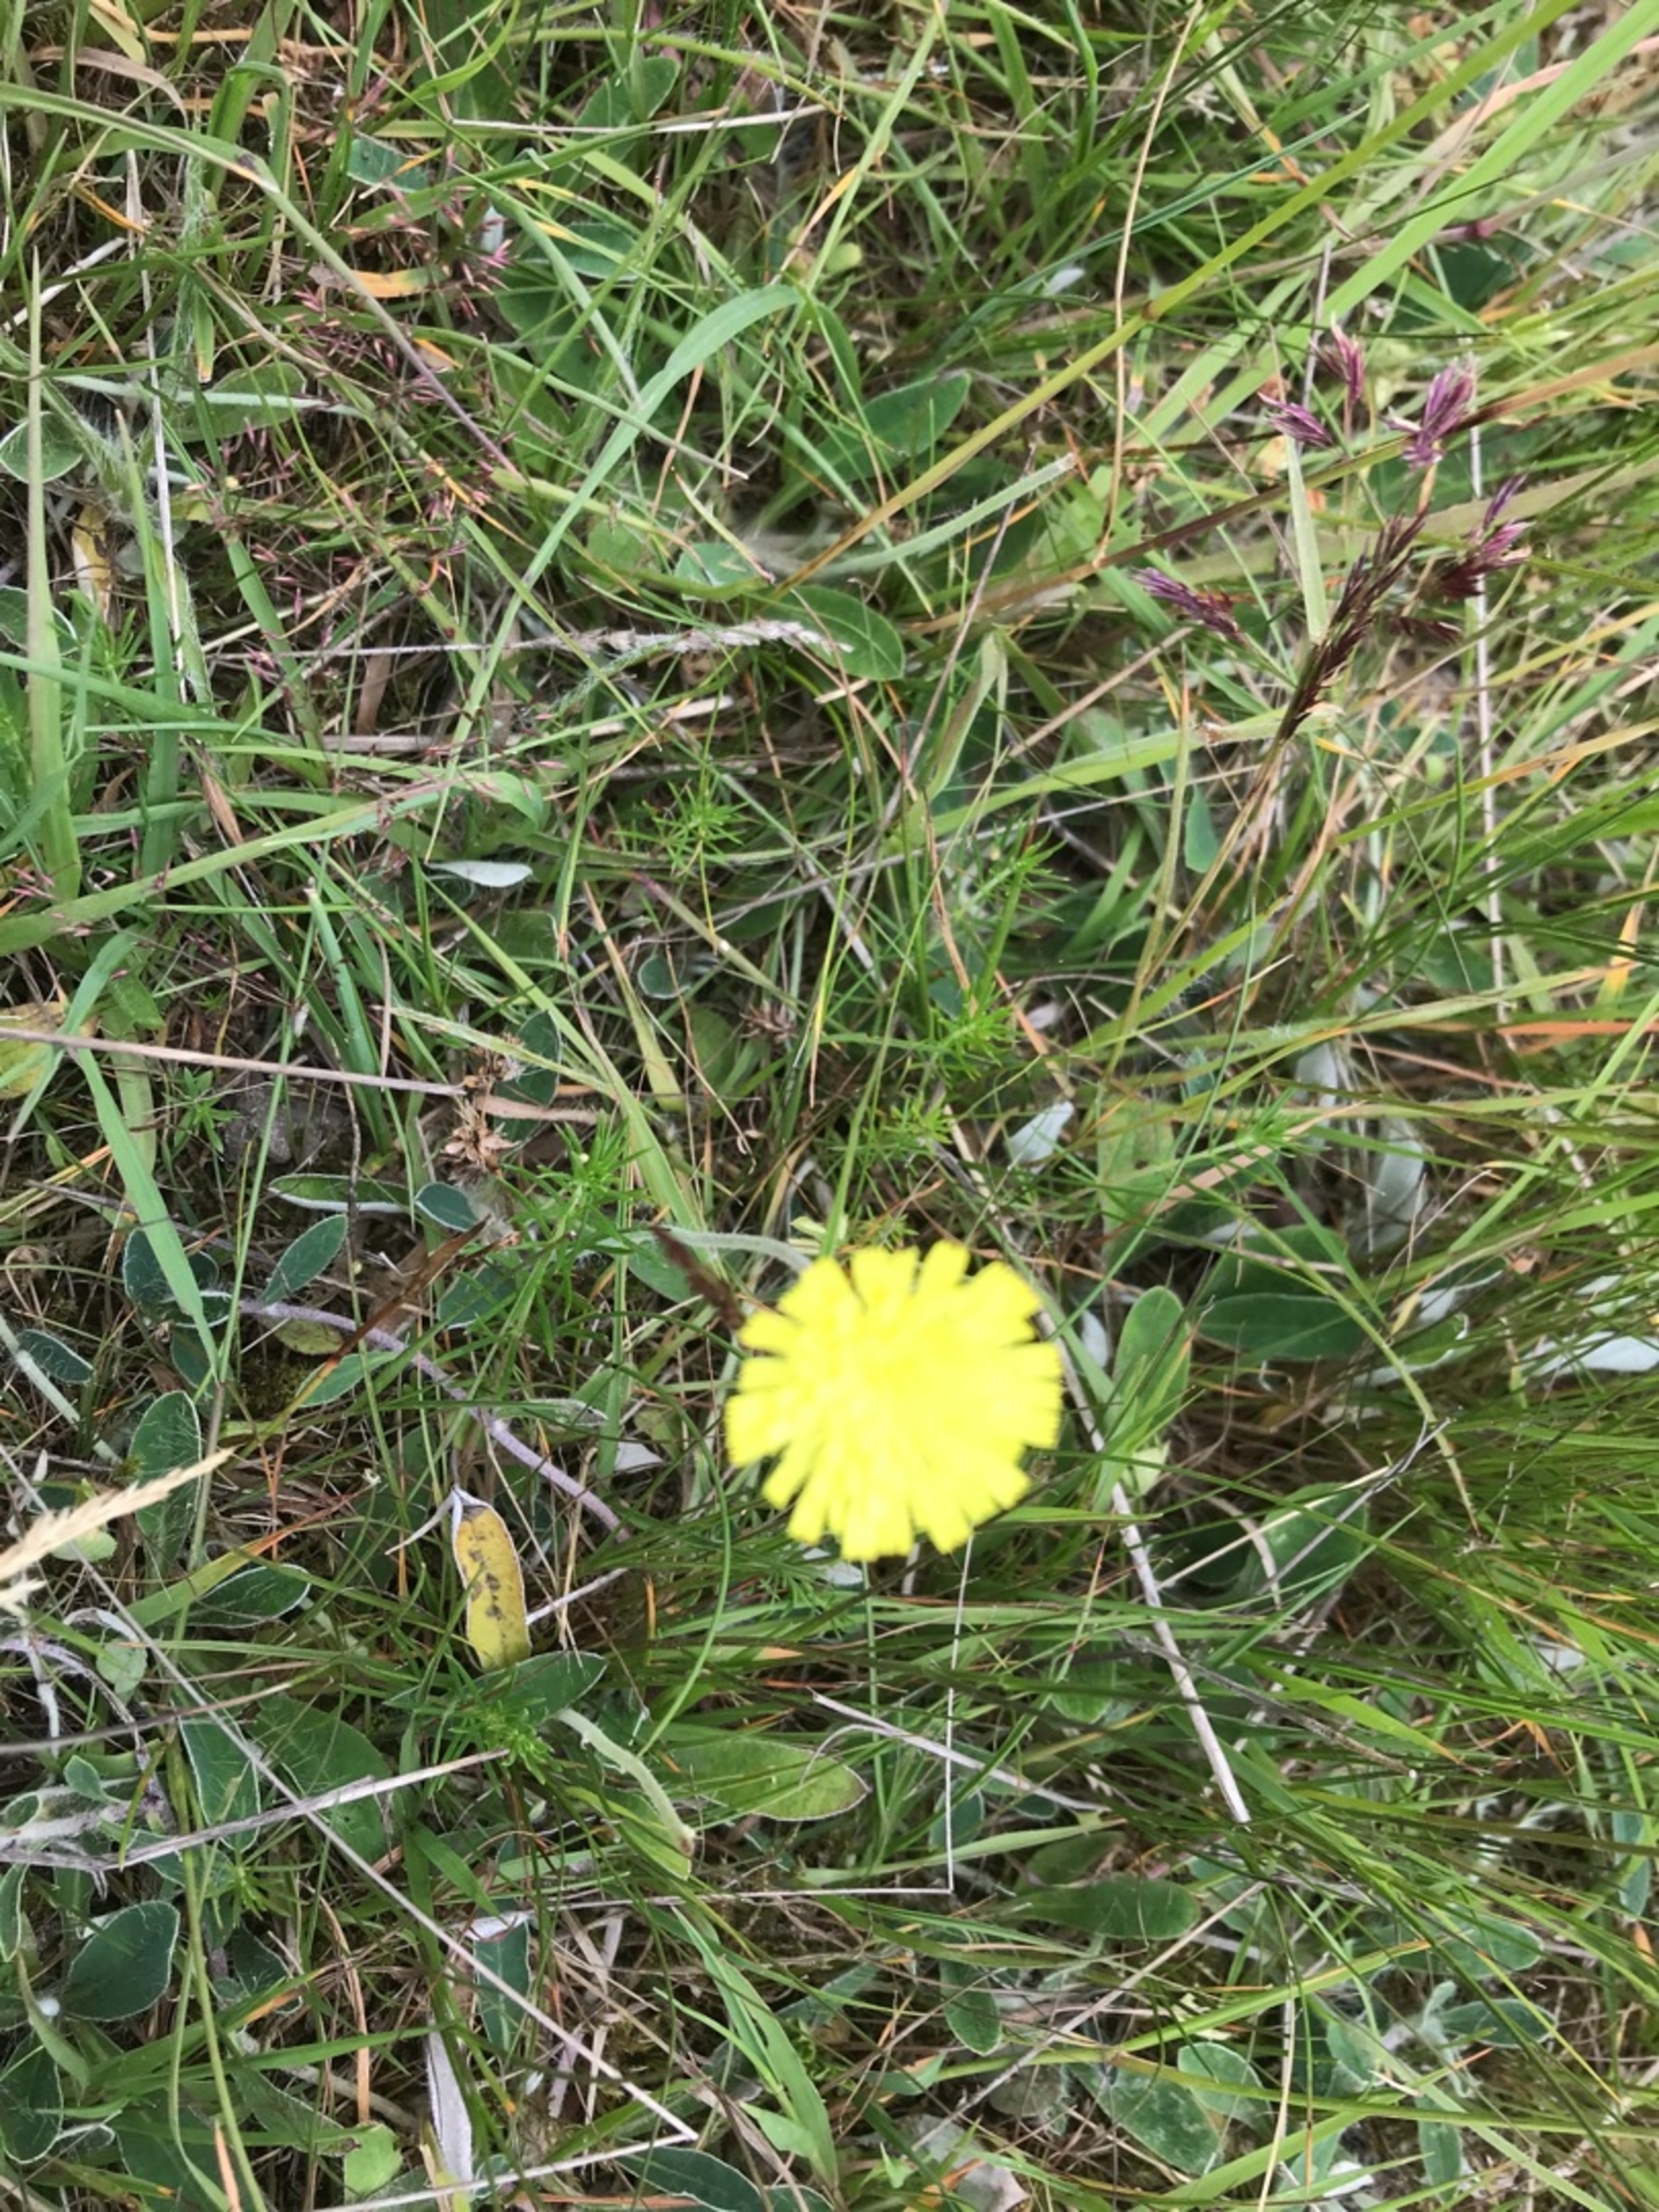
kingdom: Plantae
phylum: Tracheophyta
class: Magnoliopsida
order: Asterales
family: Asteraceae
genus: Pilosella
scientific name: Pilosella officinarum
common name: Håret høgeurt
